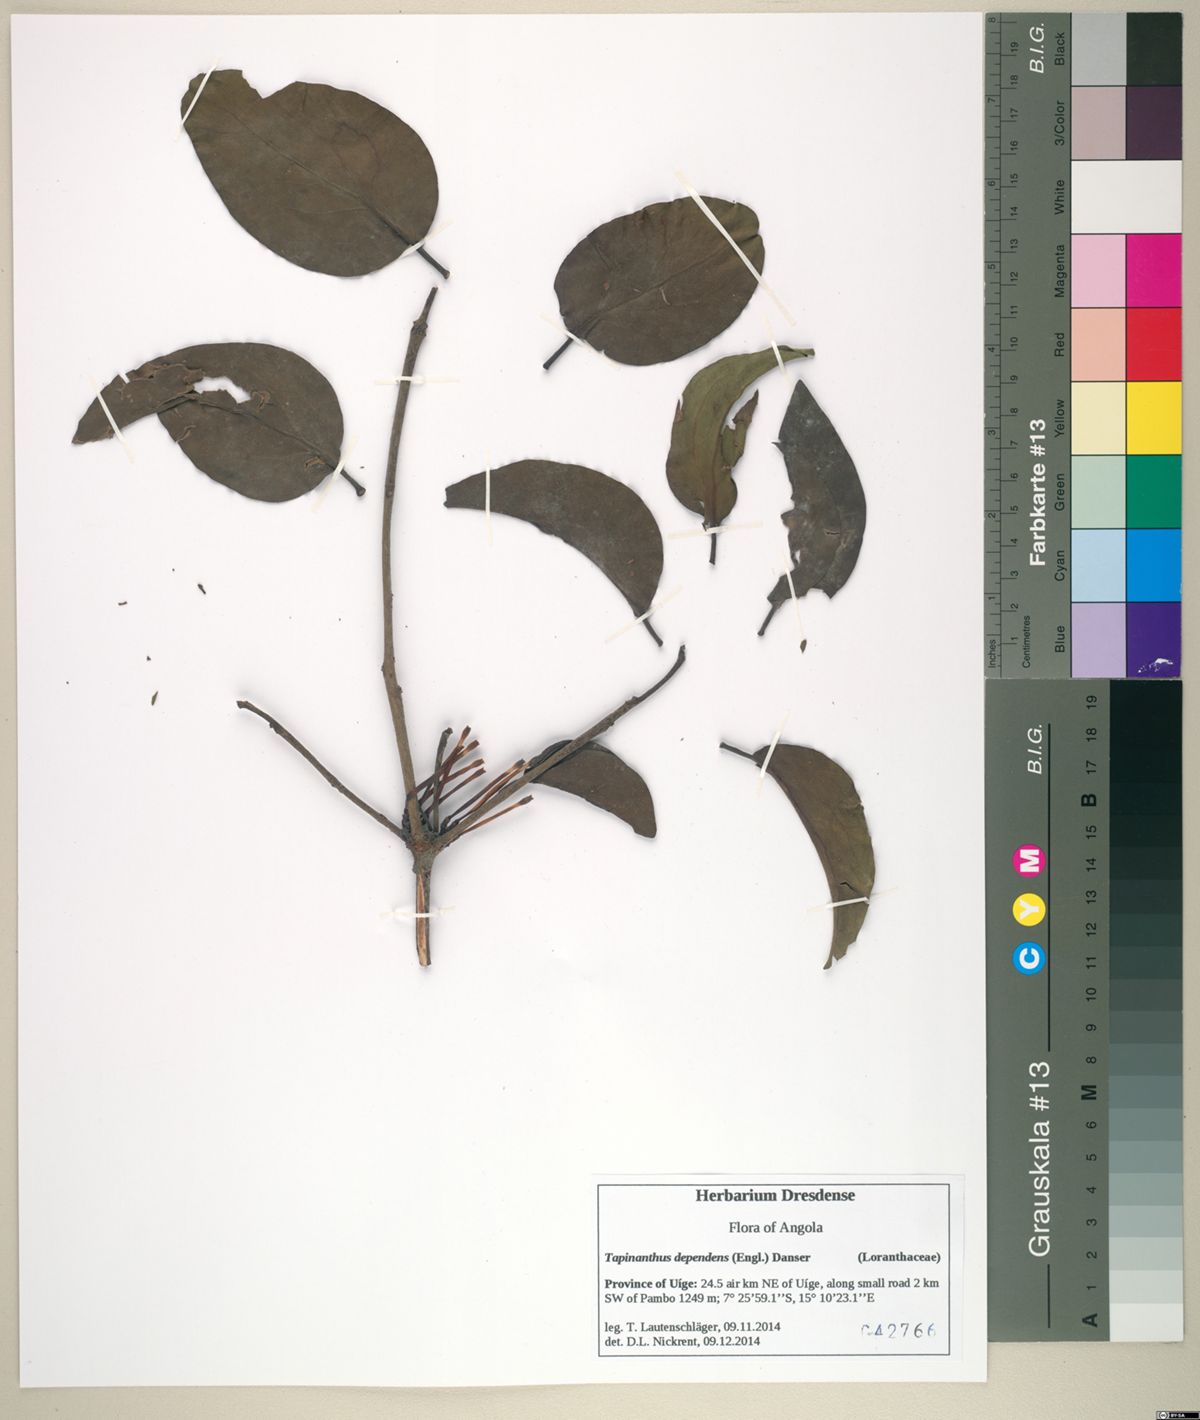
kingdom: Plantae
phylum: Tracheophyta
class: Magnoliopsida
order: Santalales
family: Loranthaceae
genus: Tapinanthus
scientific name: Tapinanthus dependens
